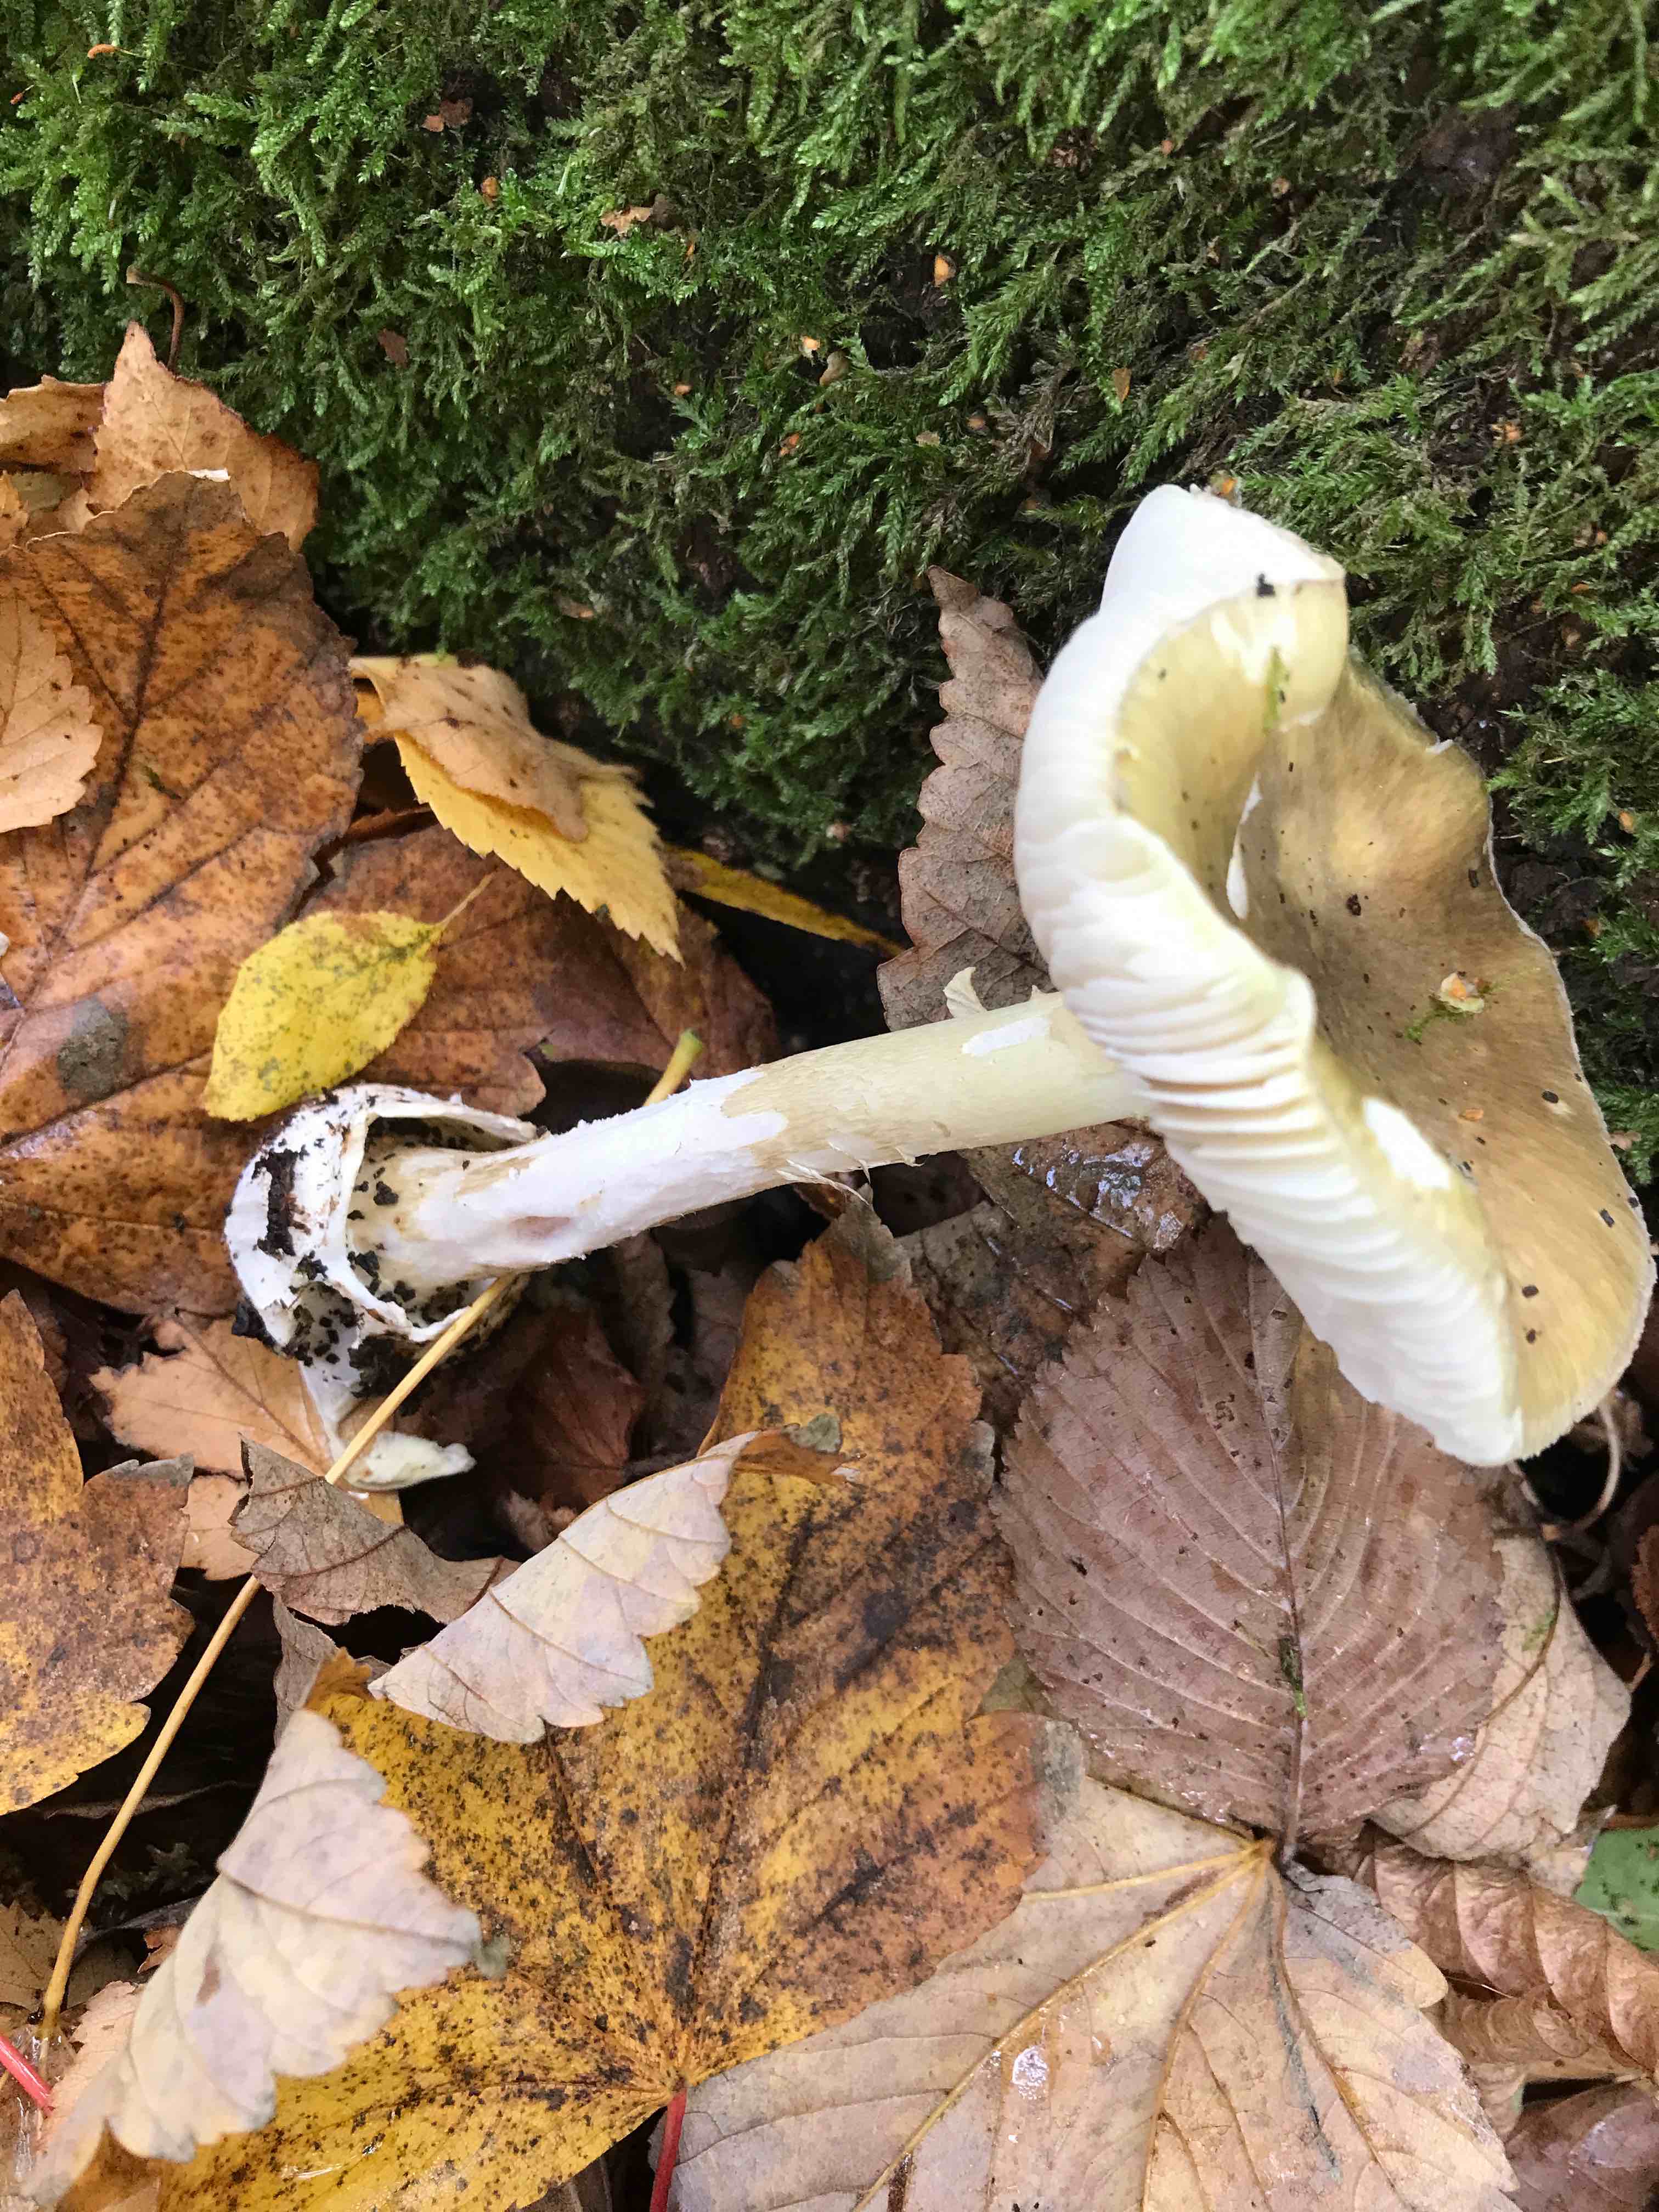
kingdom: Fungi
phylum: Basidiomycota
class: Agaricomycetes
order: Agaricales
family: Amanitaceae
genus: Amanita
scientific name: Amanita phalloides
